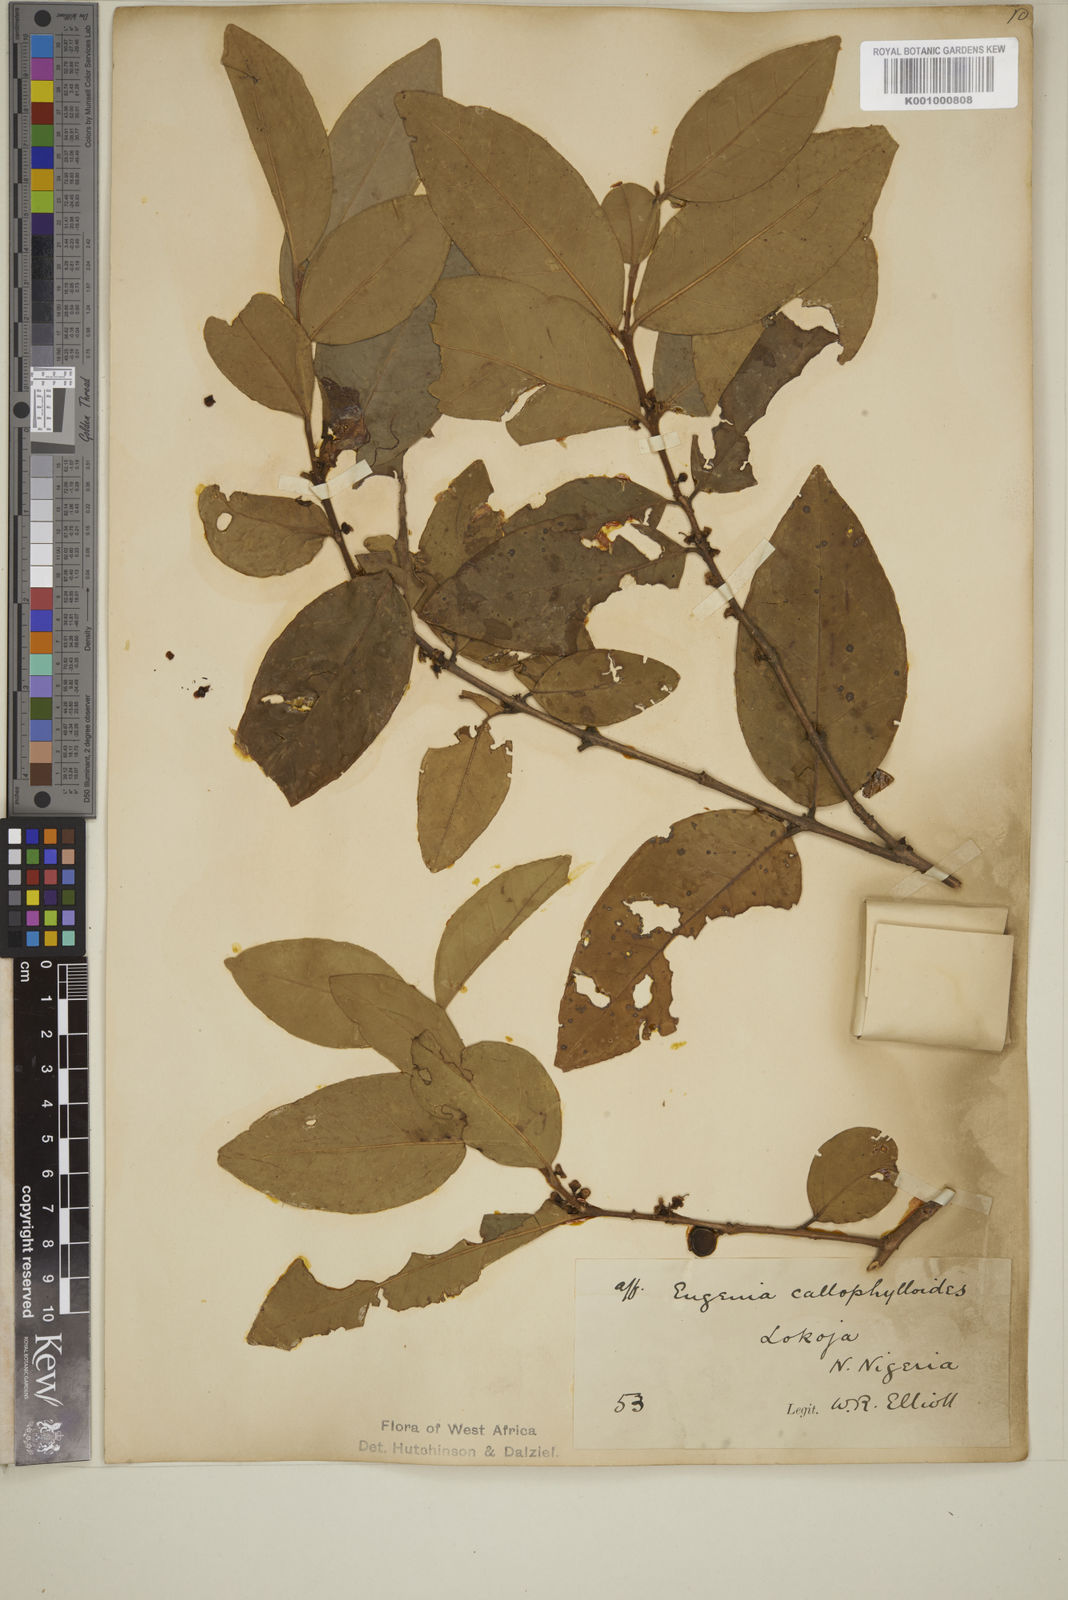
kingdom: Plantae
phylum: Tracheophyta
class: Magnoliopsida
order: Myrtales
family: Myrtaceae
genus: Eugenia
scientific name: Eugenia calophylloides
